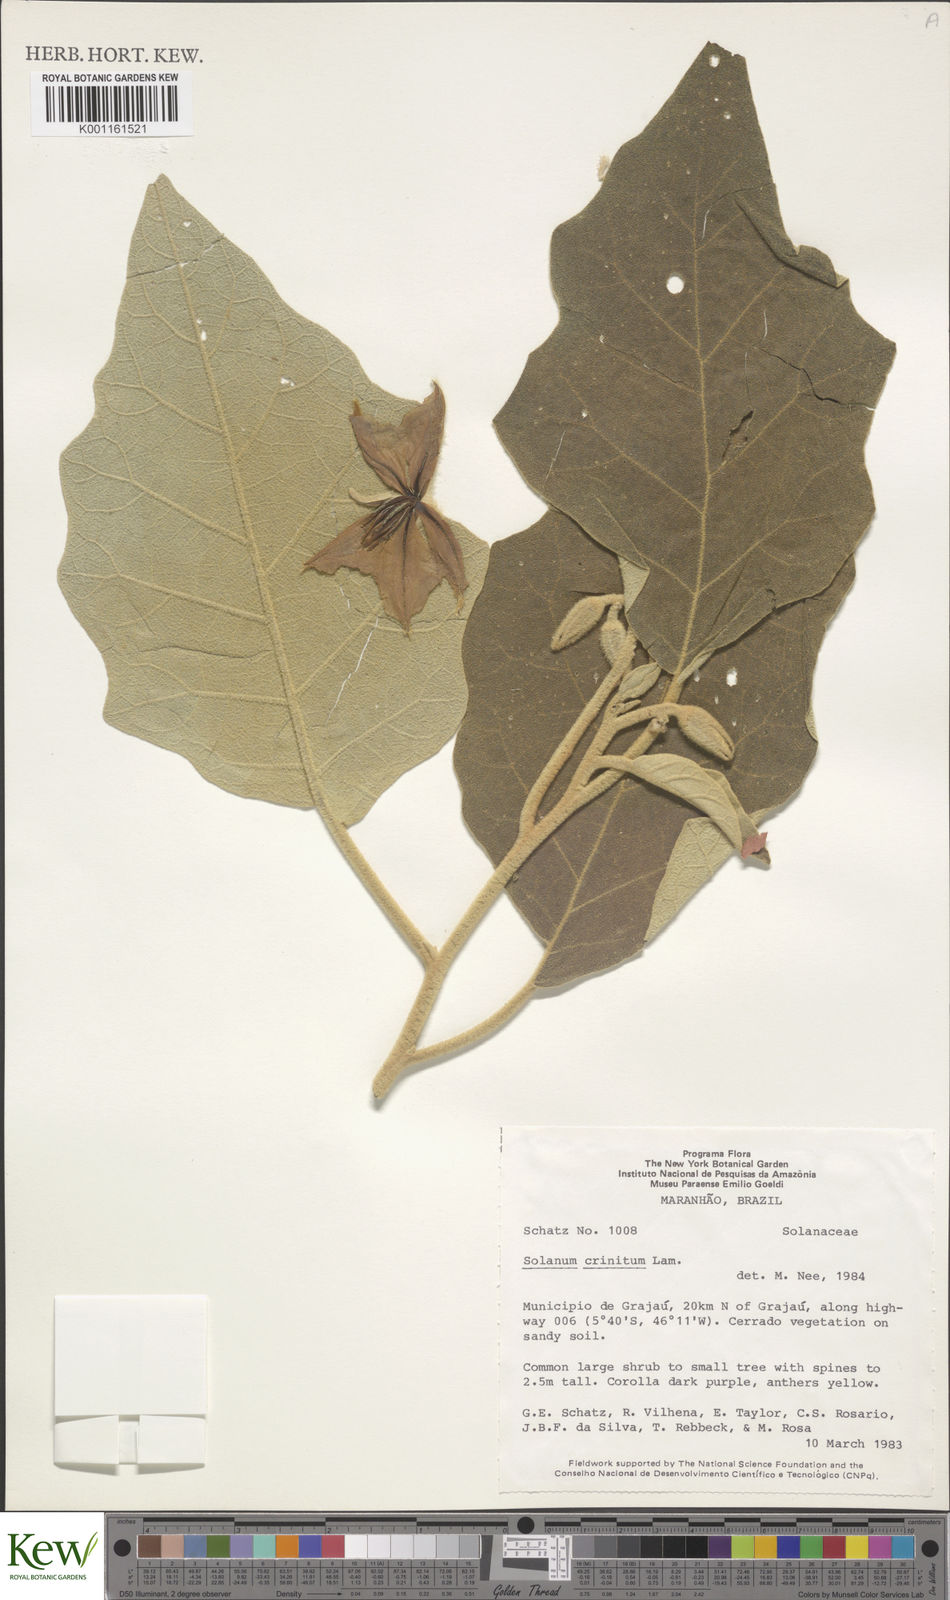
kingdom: Plantae
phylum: Tracheophyta
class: Magnoliopsida
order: Solanales
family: Solanaceae
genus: Solanum
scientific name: Solanum crinitum
